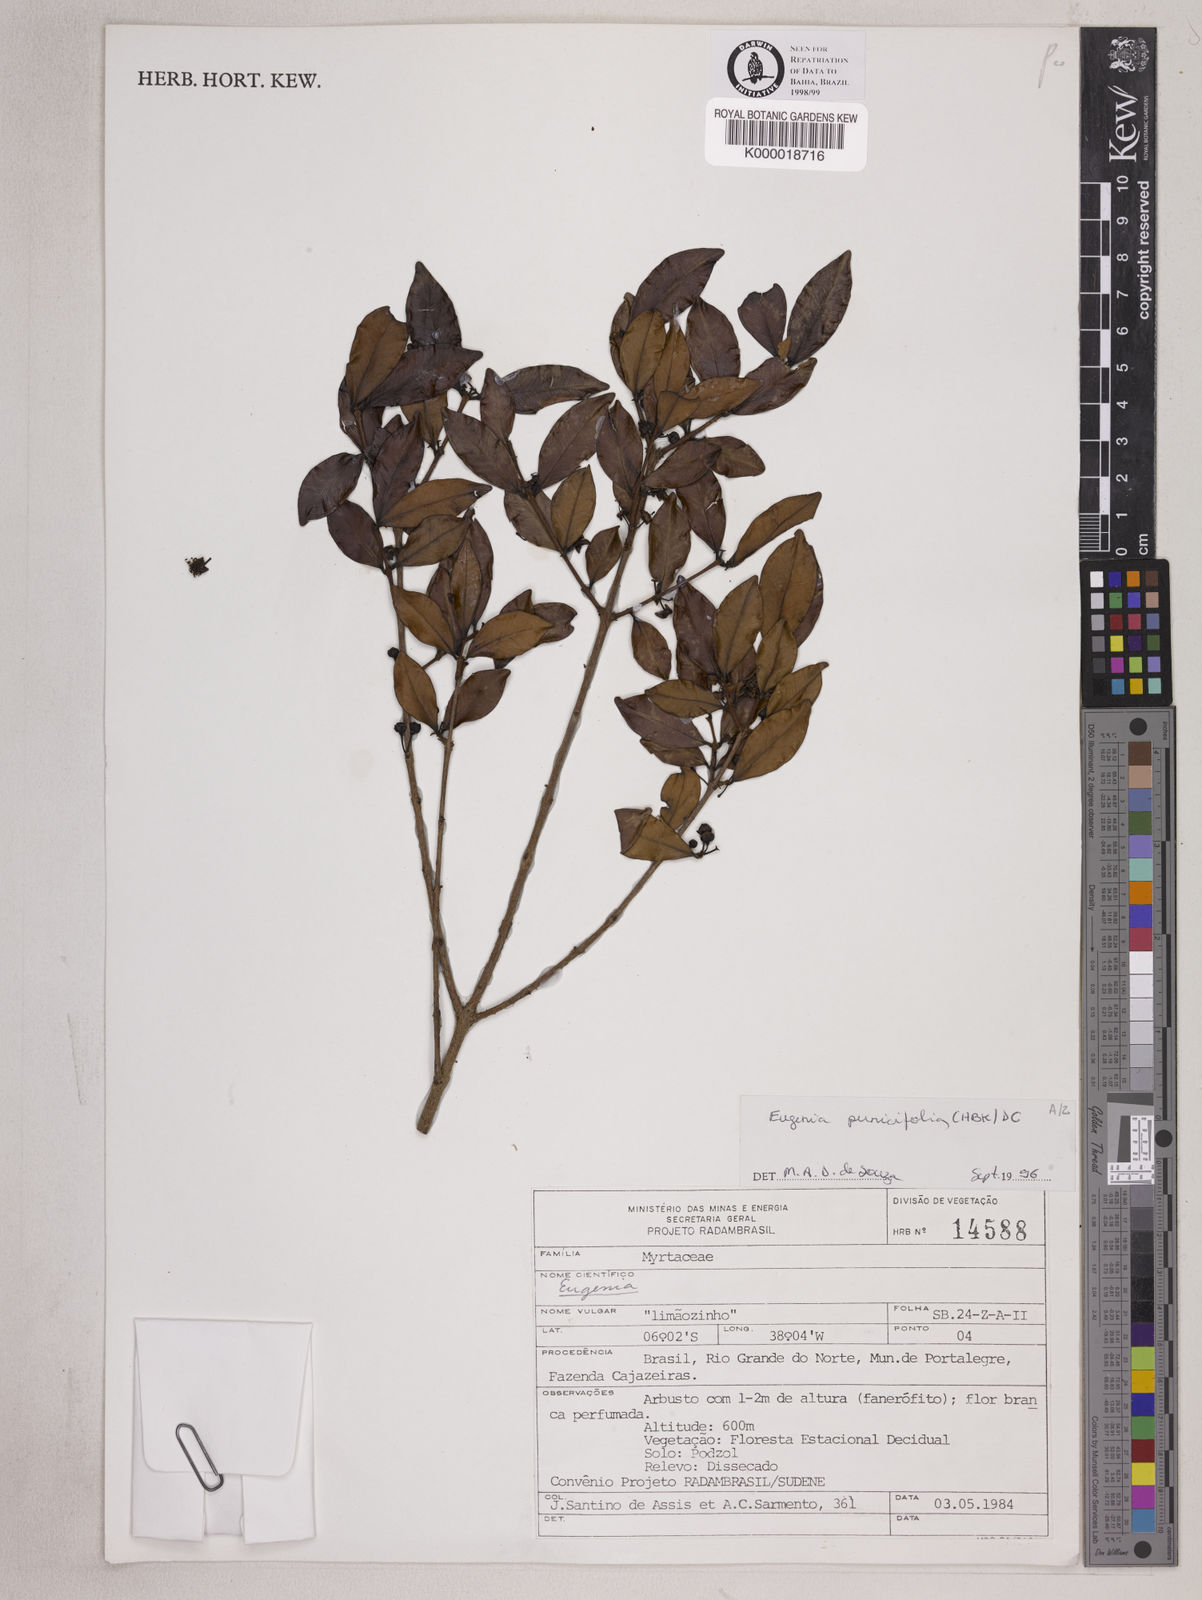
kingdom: Plantae
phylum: Tracheophyta
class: Magnoliopsida
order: Myrtales
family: Myrtaceae
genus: Eugenia
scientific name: Eugenia punicifolia
